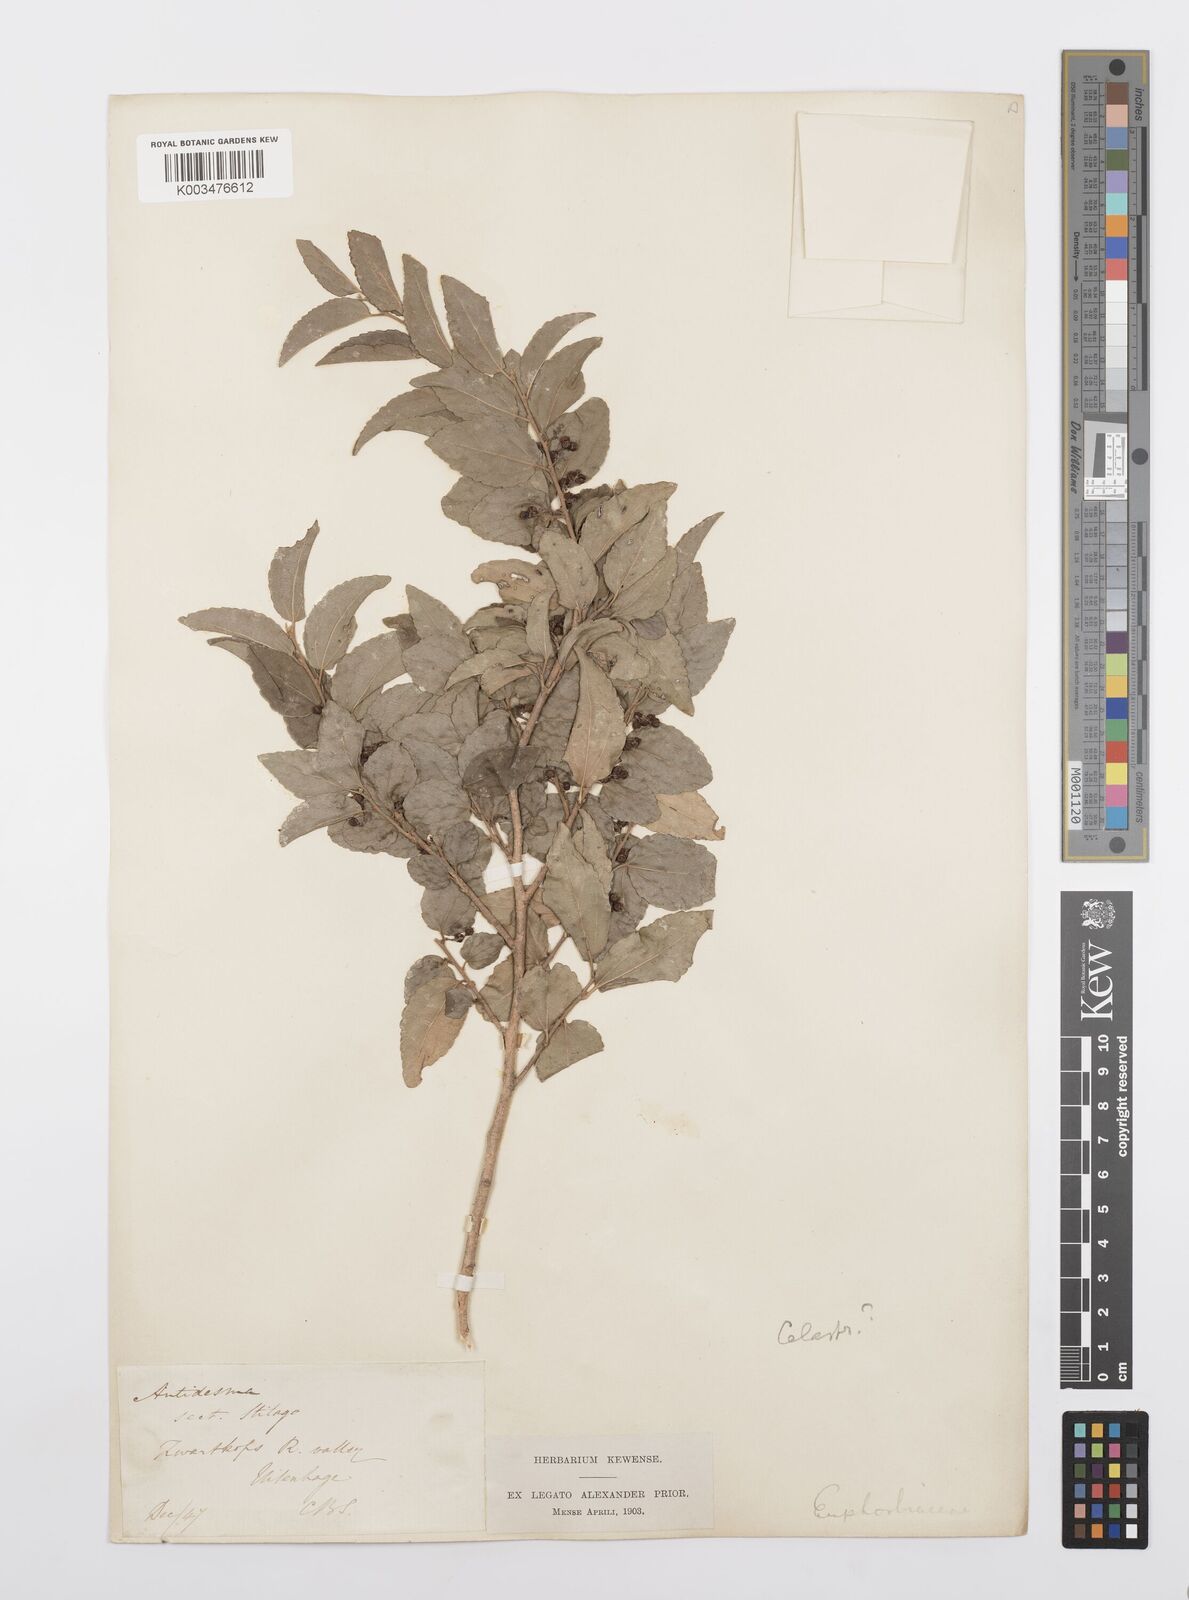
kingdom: Plantae
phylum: Tracheophyta
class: Magnoliopsida
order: Malpighiales
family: Salicaceae
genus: Trimeria
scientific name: Trimeria trinervis
